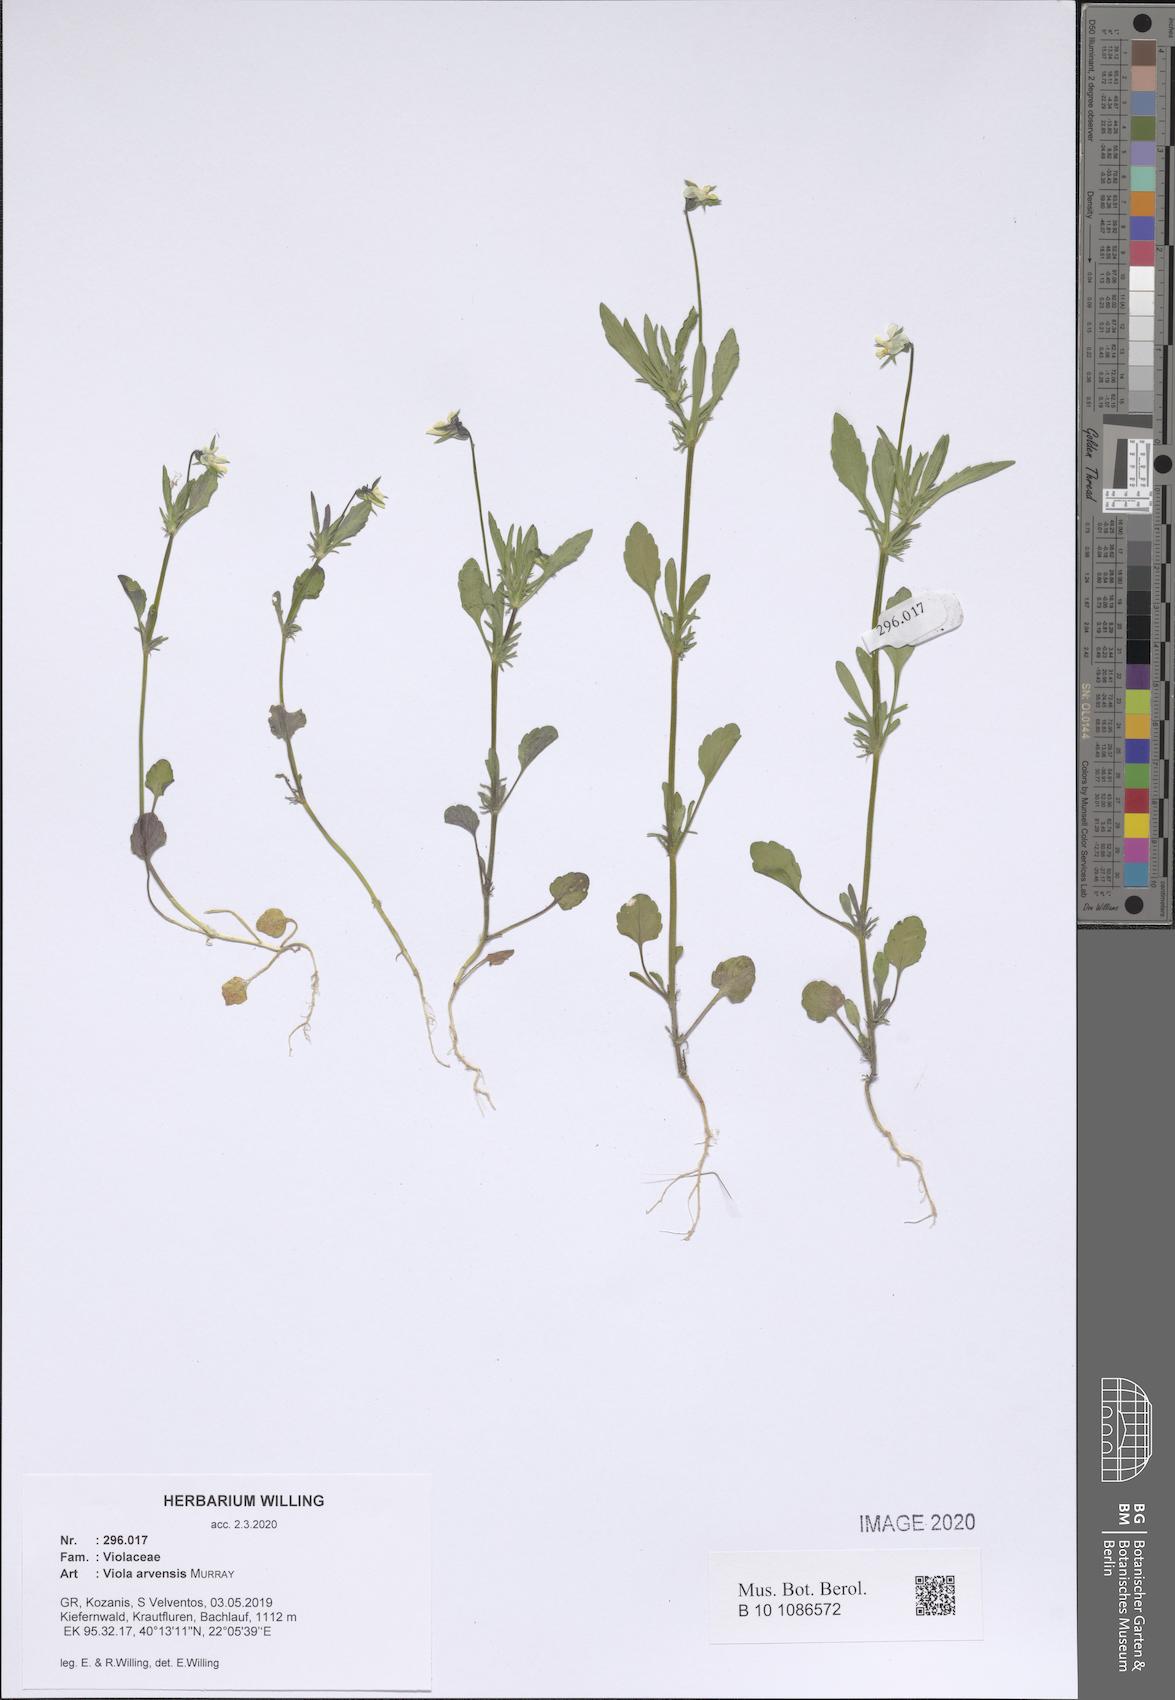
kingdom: Plantae
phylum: Tracheophyta
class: Magnoliopsida
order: Malpighiales
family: Violaceae
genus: Viola
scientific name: Viola arvensis
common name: Field pansy
